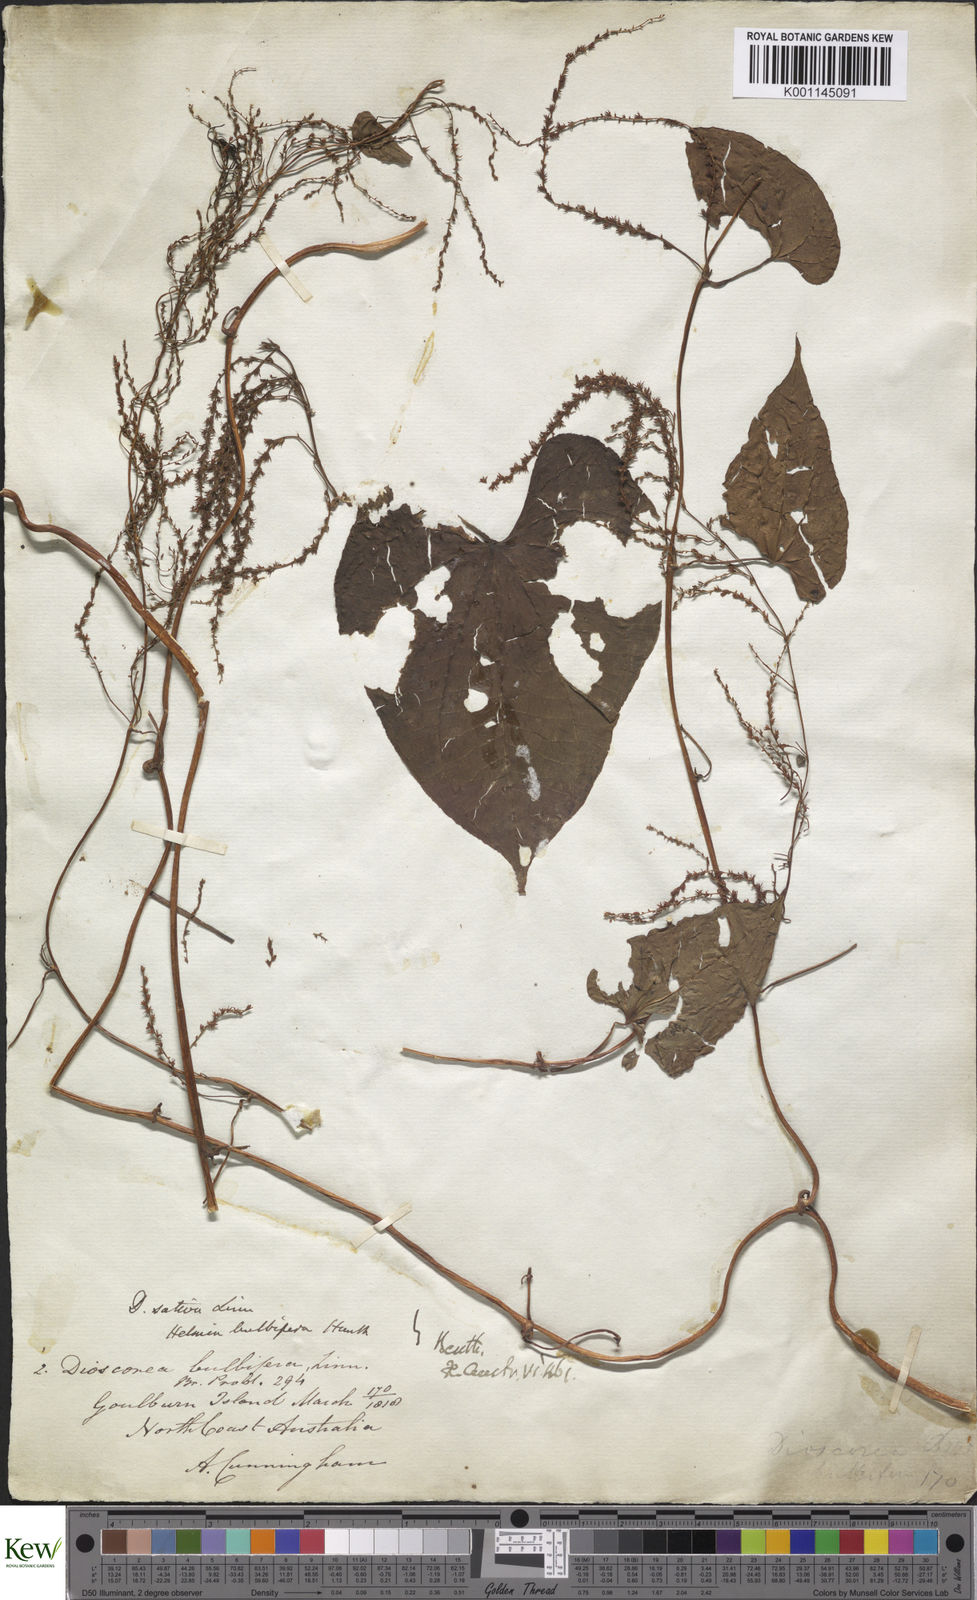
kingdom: Plantae
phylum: Tracheophyta
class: Liliopsida
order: Dioscoreales
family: Dioscoreaceae
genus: Dioscorea
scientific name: Dioscorea bulbifera
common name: Air yam
